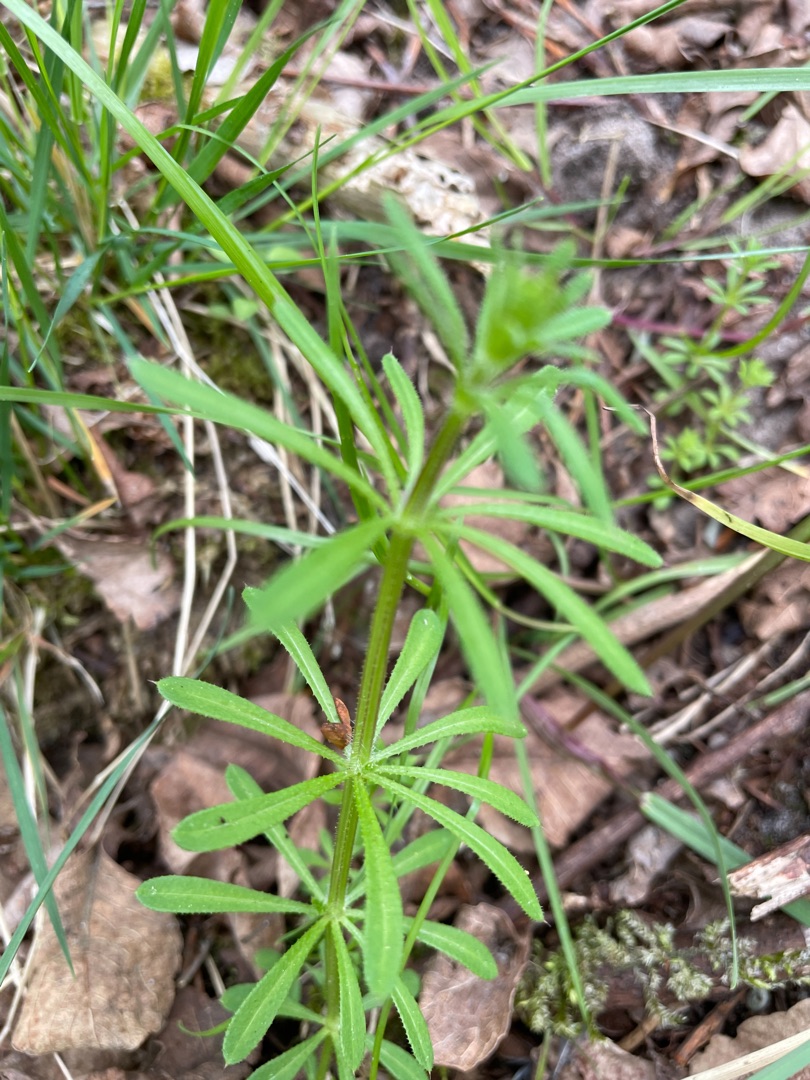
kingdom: Plantae
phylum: Tracheophyta
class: Magnoliopsida
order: Gentianales
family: Rubiaceae
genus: Galium
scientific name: Galium aparine
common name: Burre-snerre
